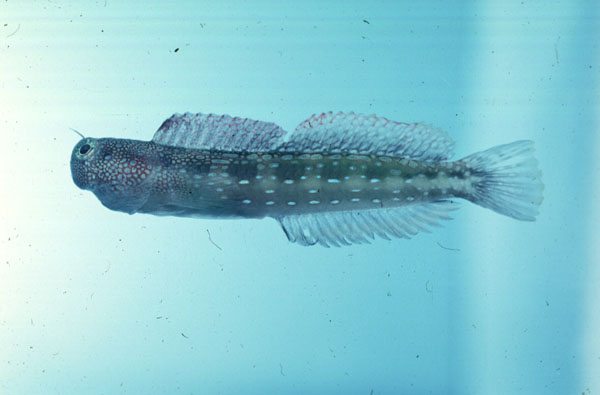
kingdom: Animalia
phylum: Chordata
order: Perciformes
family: Blenniidae
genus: Blenniella
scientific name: Blenniella gibbifrons
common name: Picture rockskipper
